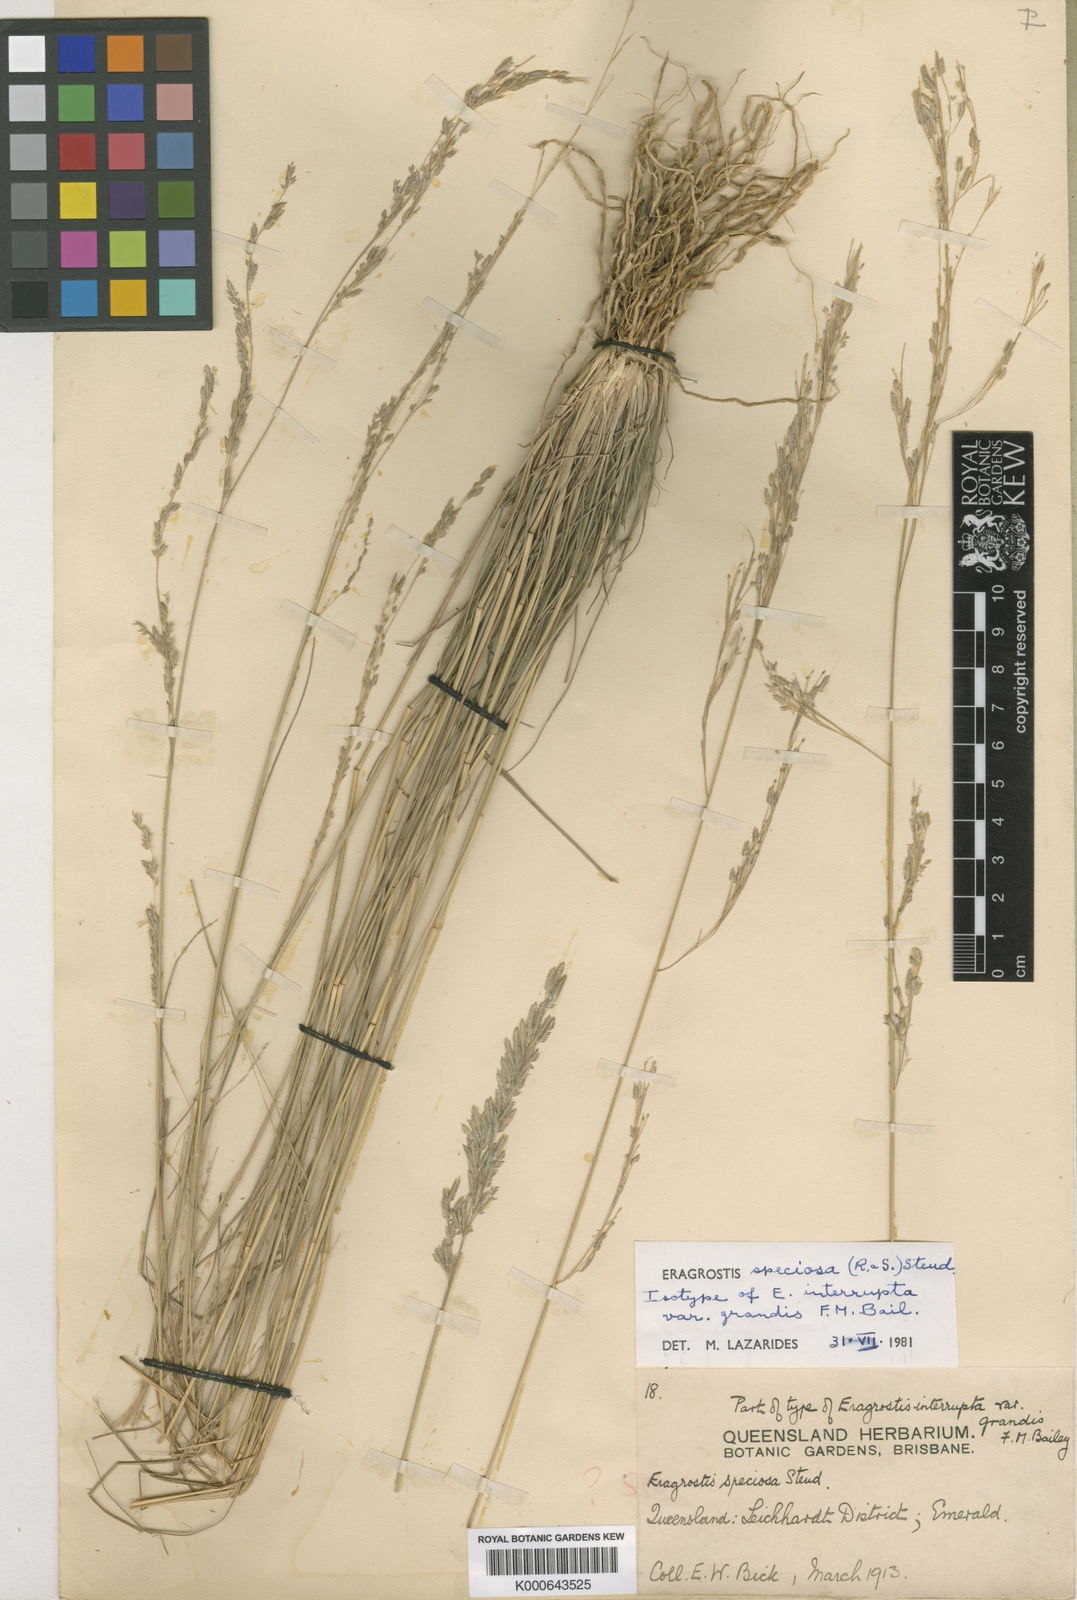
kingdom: Plantae
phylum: Tracheophyta
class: Liliopsida
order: Poales
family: Poaceae
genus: Eragrostis
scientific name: Eragrostis speciosa
